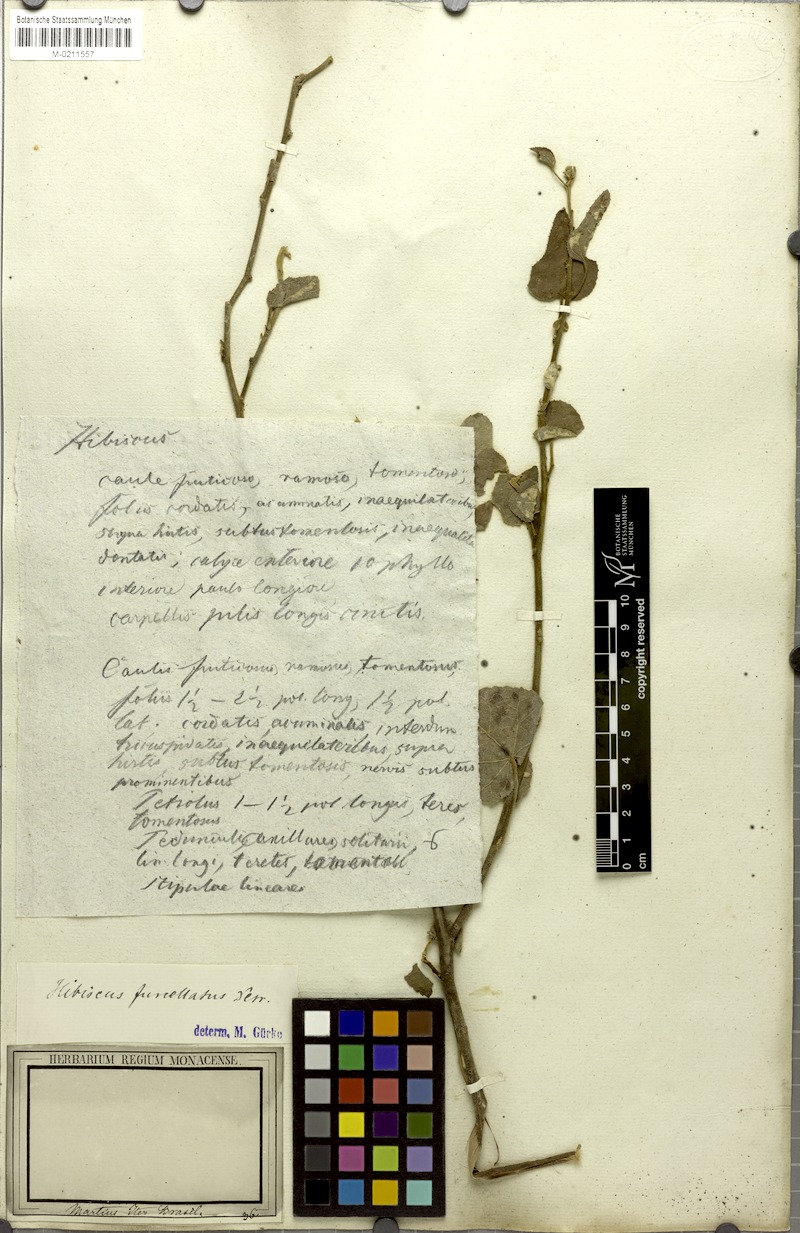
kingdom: Plantae
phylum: Tracheophyta
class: Magnoliopsida
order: Malvales
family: Malvaceae
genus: Hibiscus
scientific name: Hibiscus furcellatus
